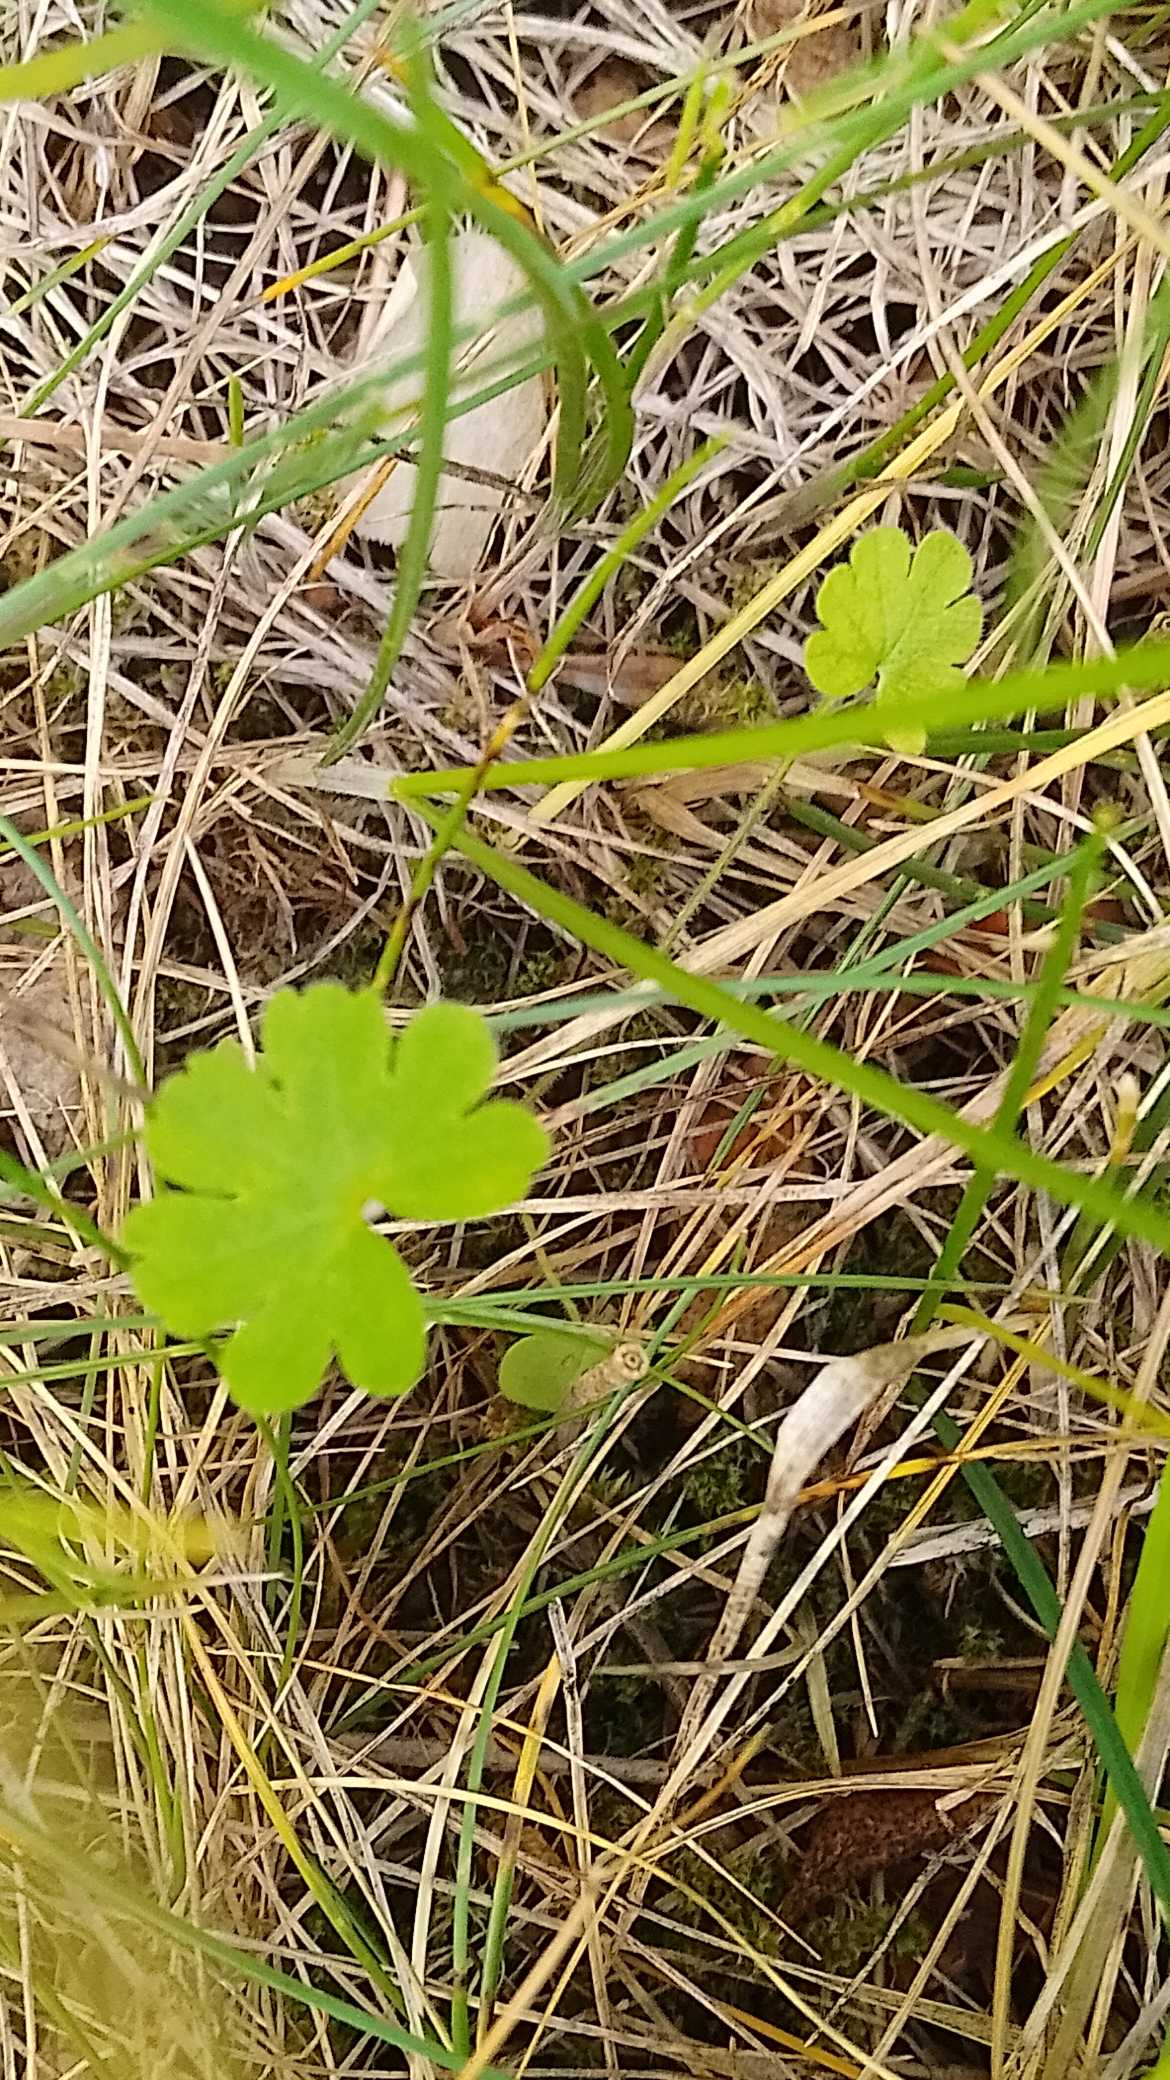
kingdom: Plantae
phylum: Tracheophyta
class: Magnoliopsida
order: Geraniales
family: Geraniaceae
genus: Geranium
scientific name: Geranium
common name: Storkenæbslægten
